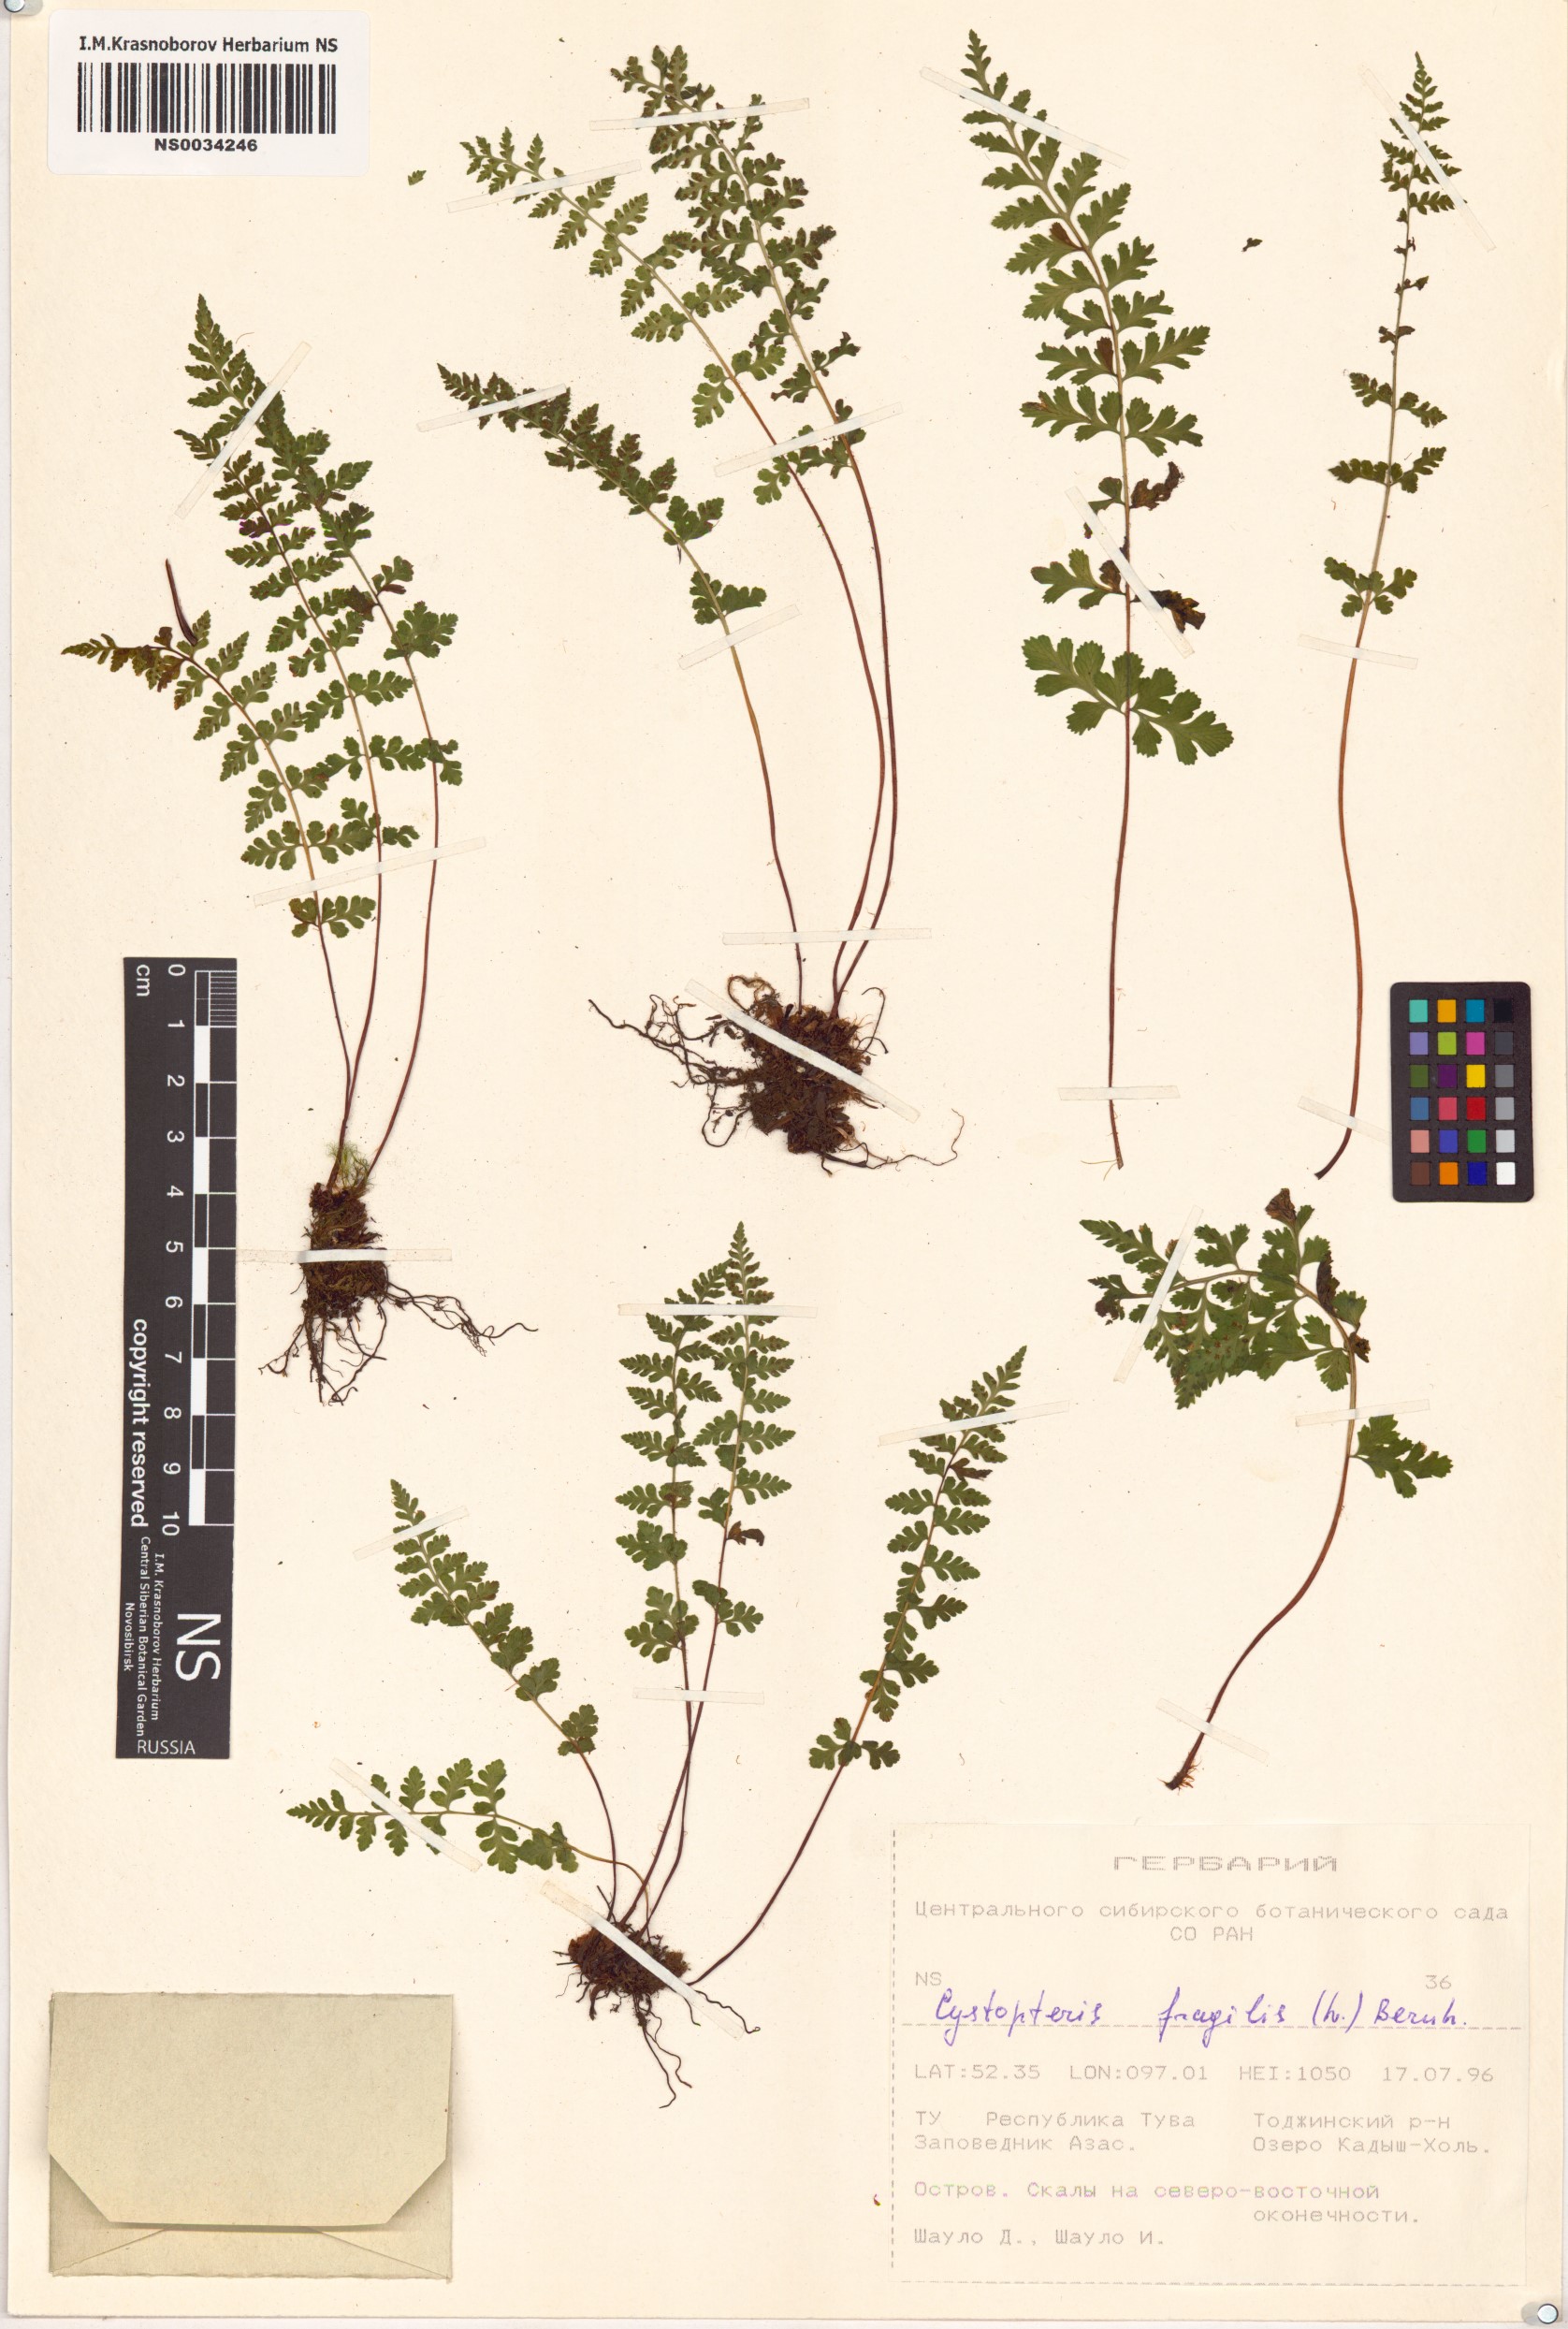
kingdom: Plantae
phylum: Tracheophyta
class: Polypodiopsida
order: Polypodiales
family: Cystopteridaceae
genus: Cystopteris
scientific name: Cystopteris fragilis
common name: Brittle bladder fern
